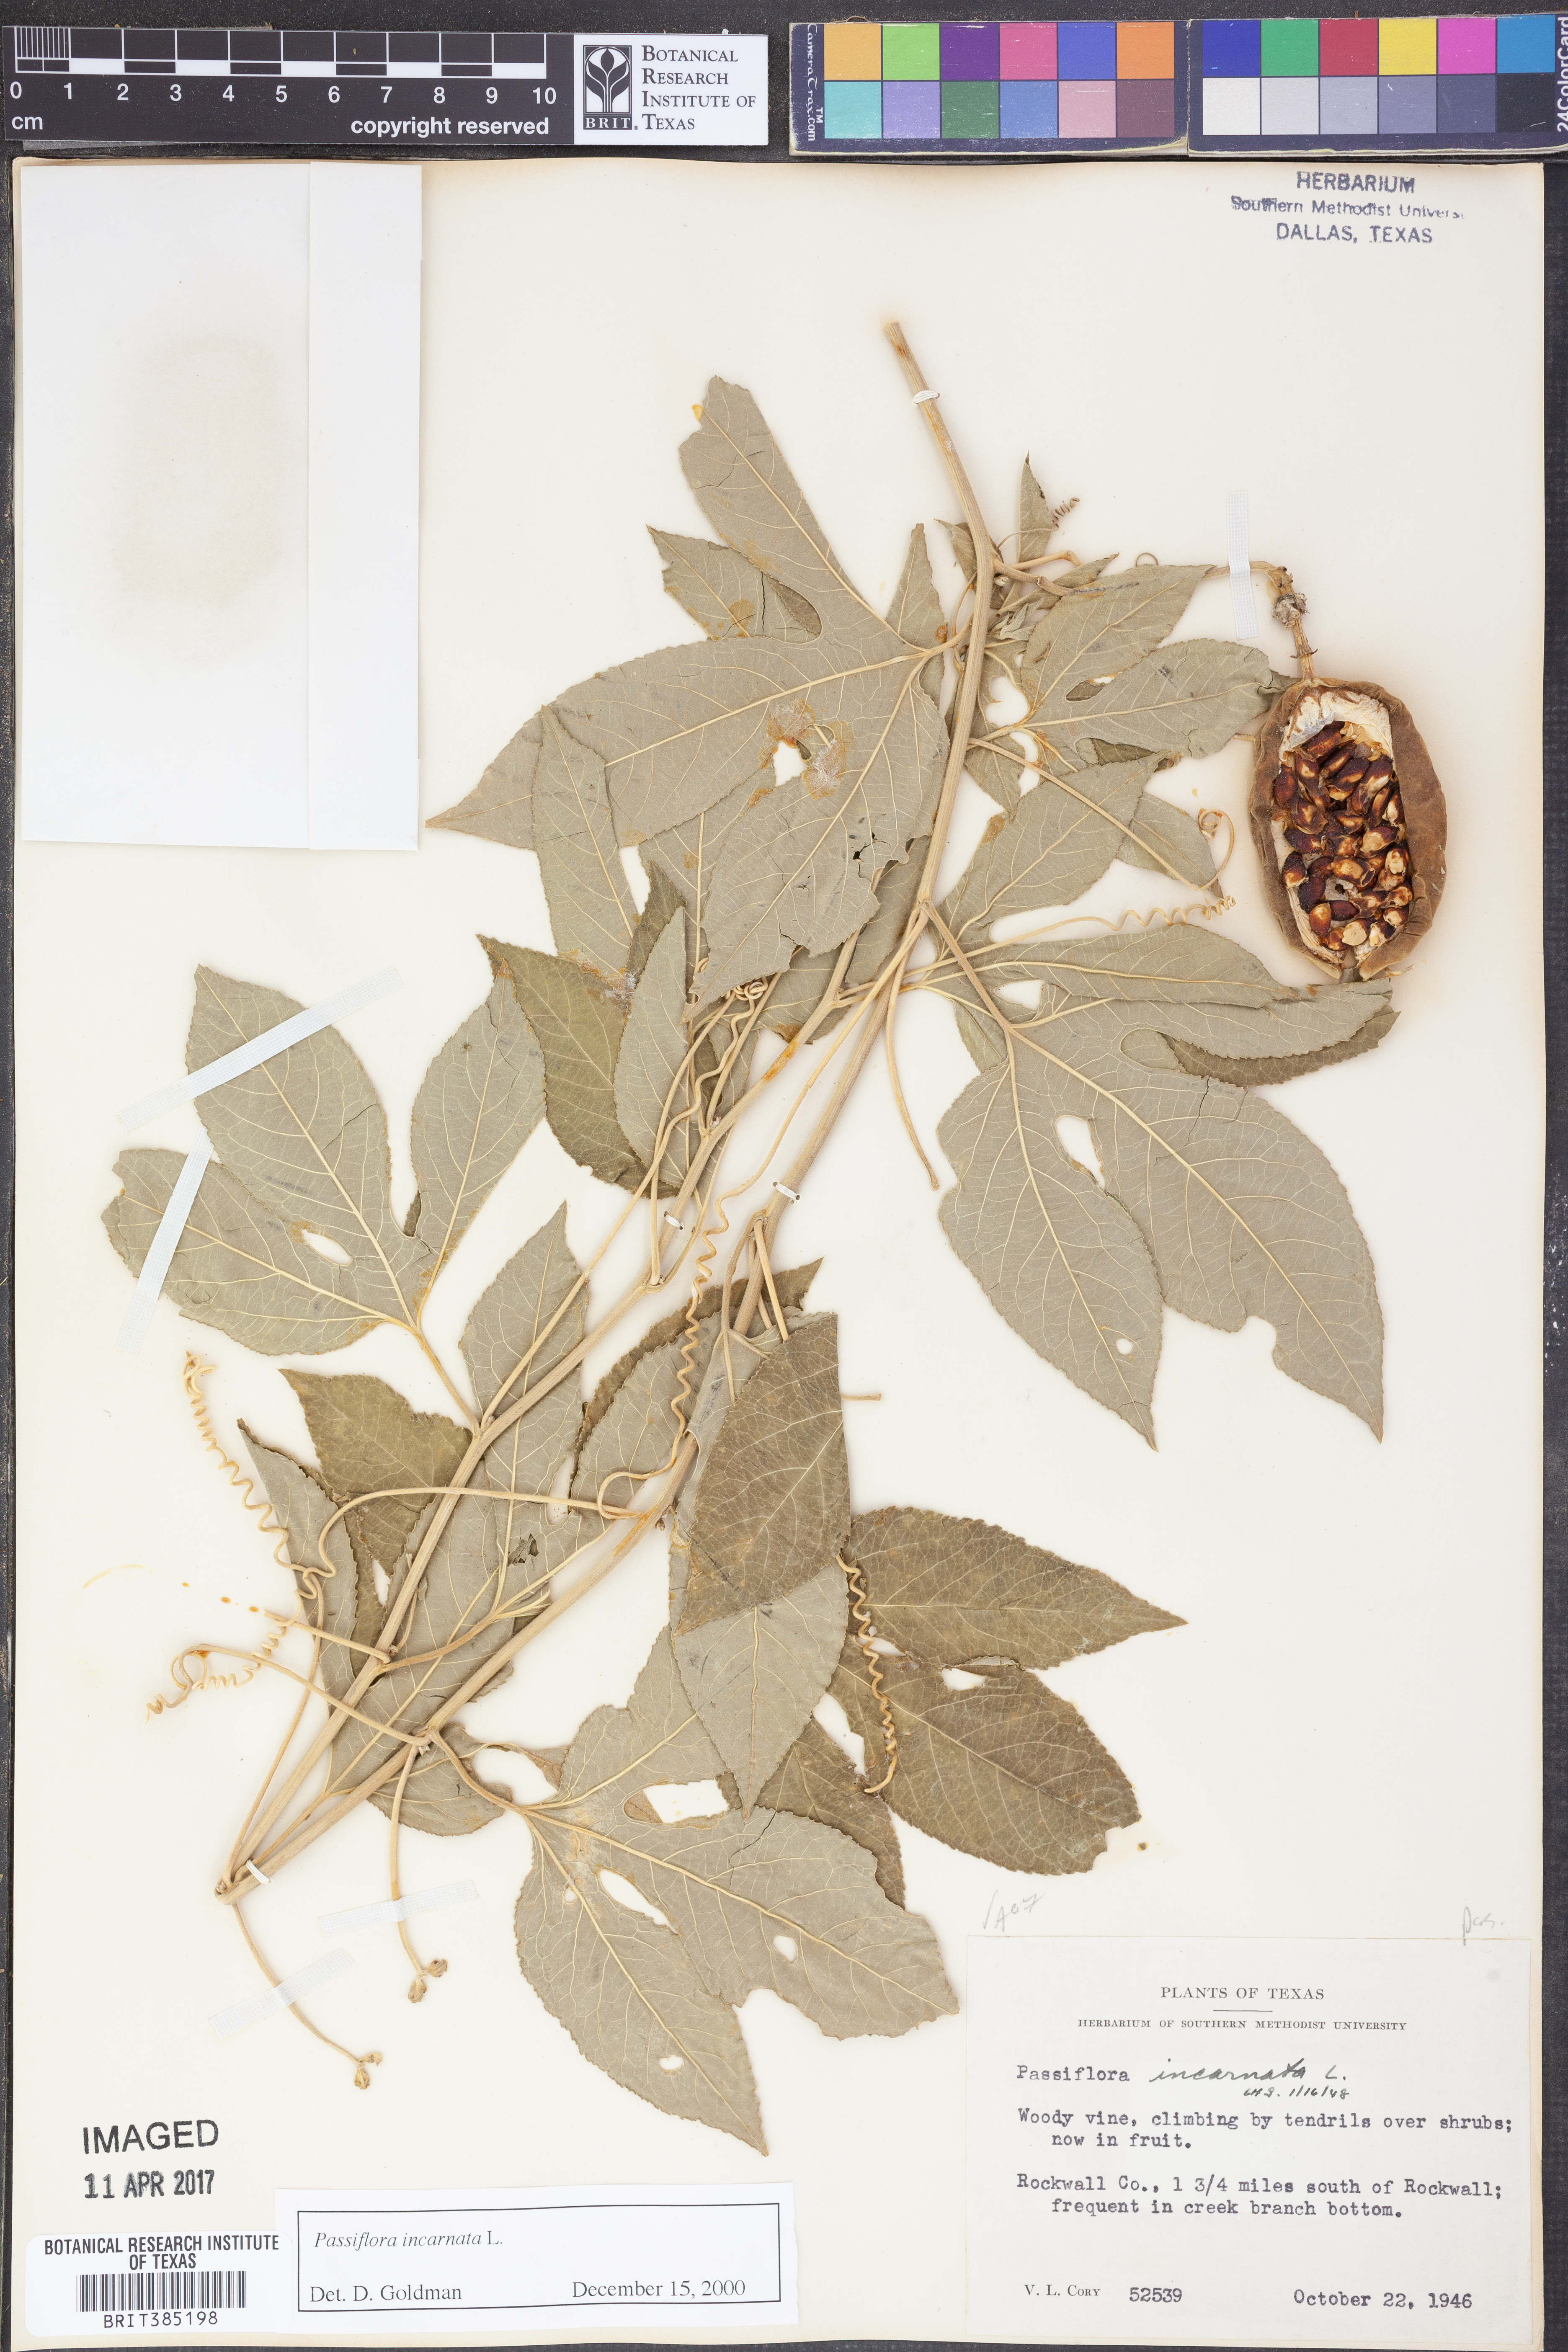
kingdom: Plantae
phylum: Tracheophyta
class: Magnoliopsida
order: Malpighiales
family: Passifloraceae
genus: Passiflora
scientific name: Passiflora incarnata
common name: Apricot-vine
